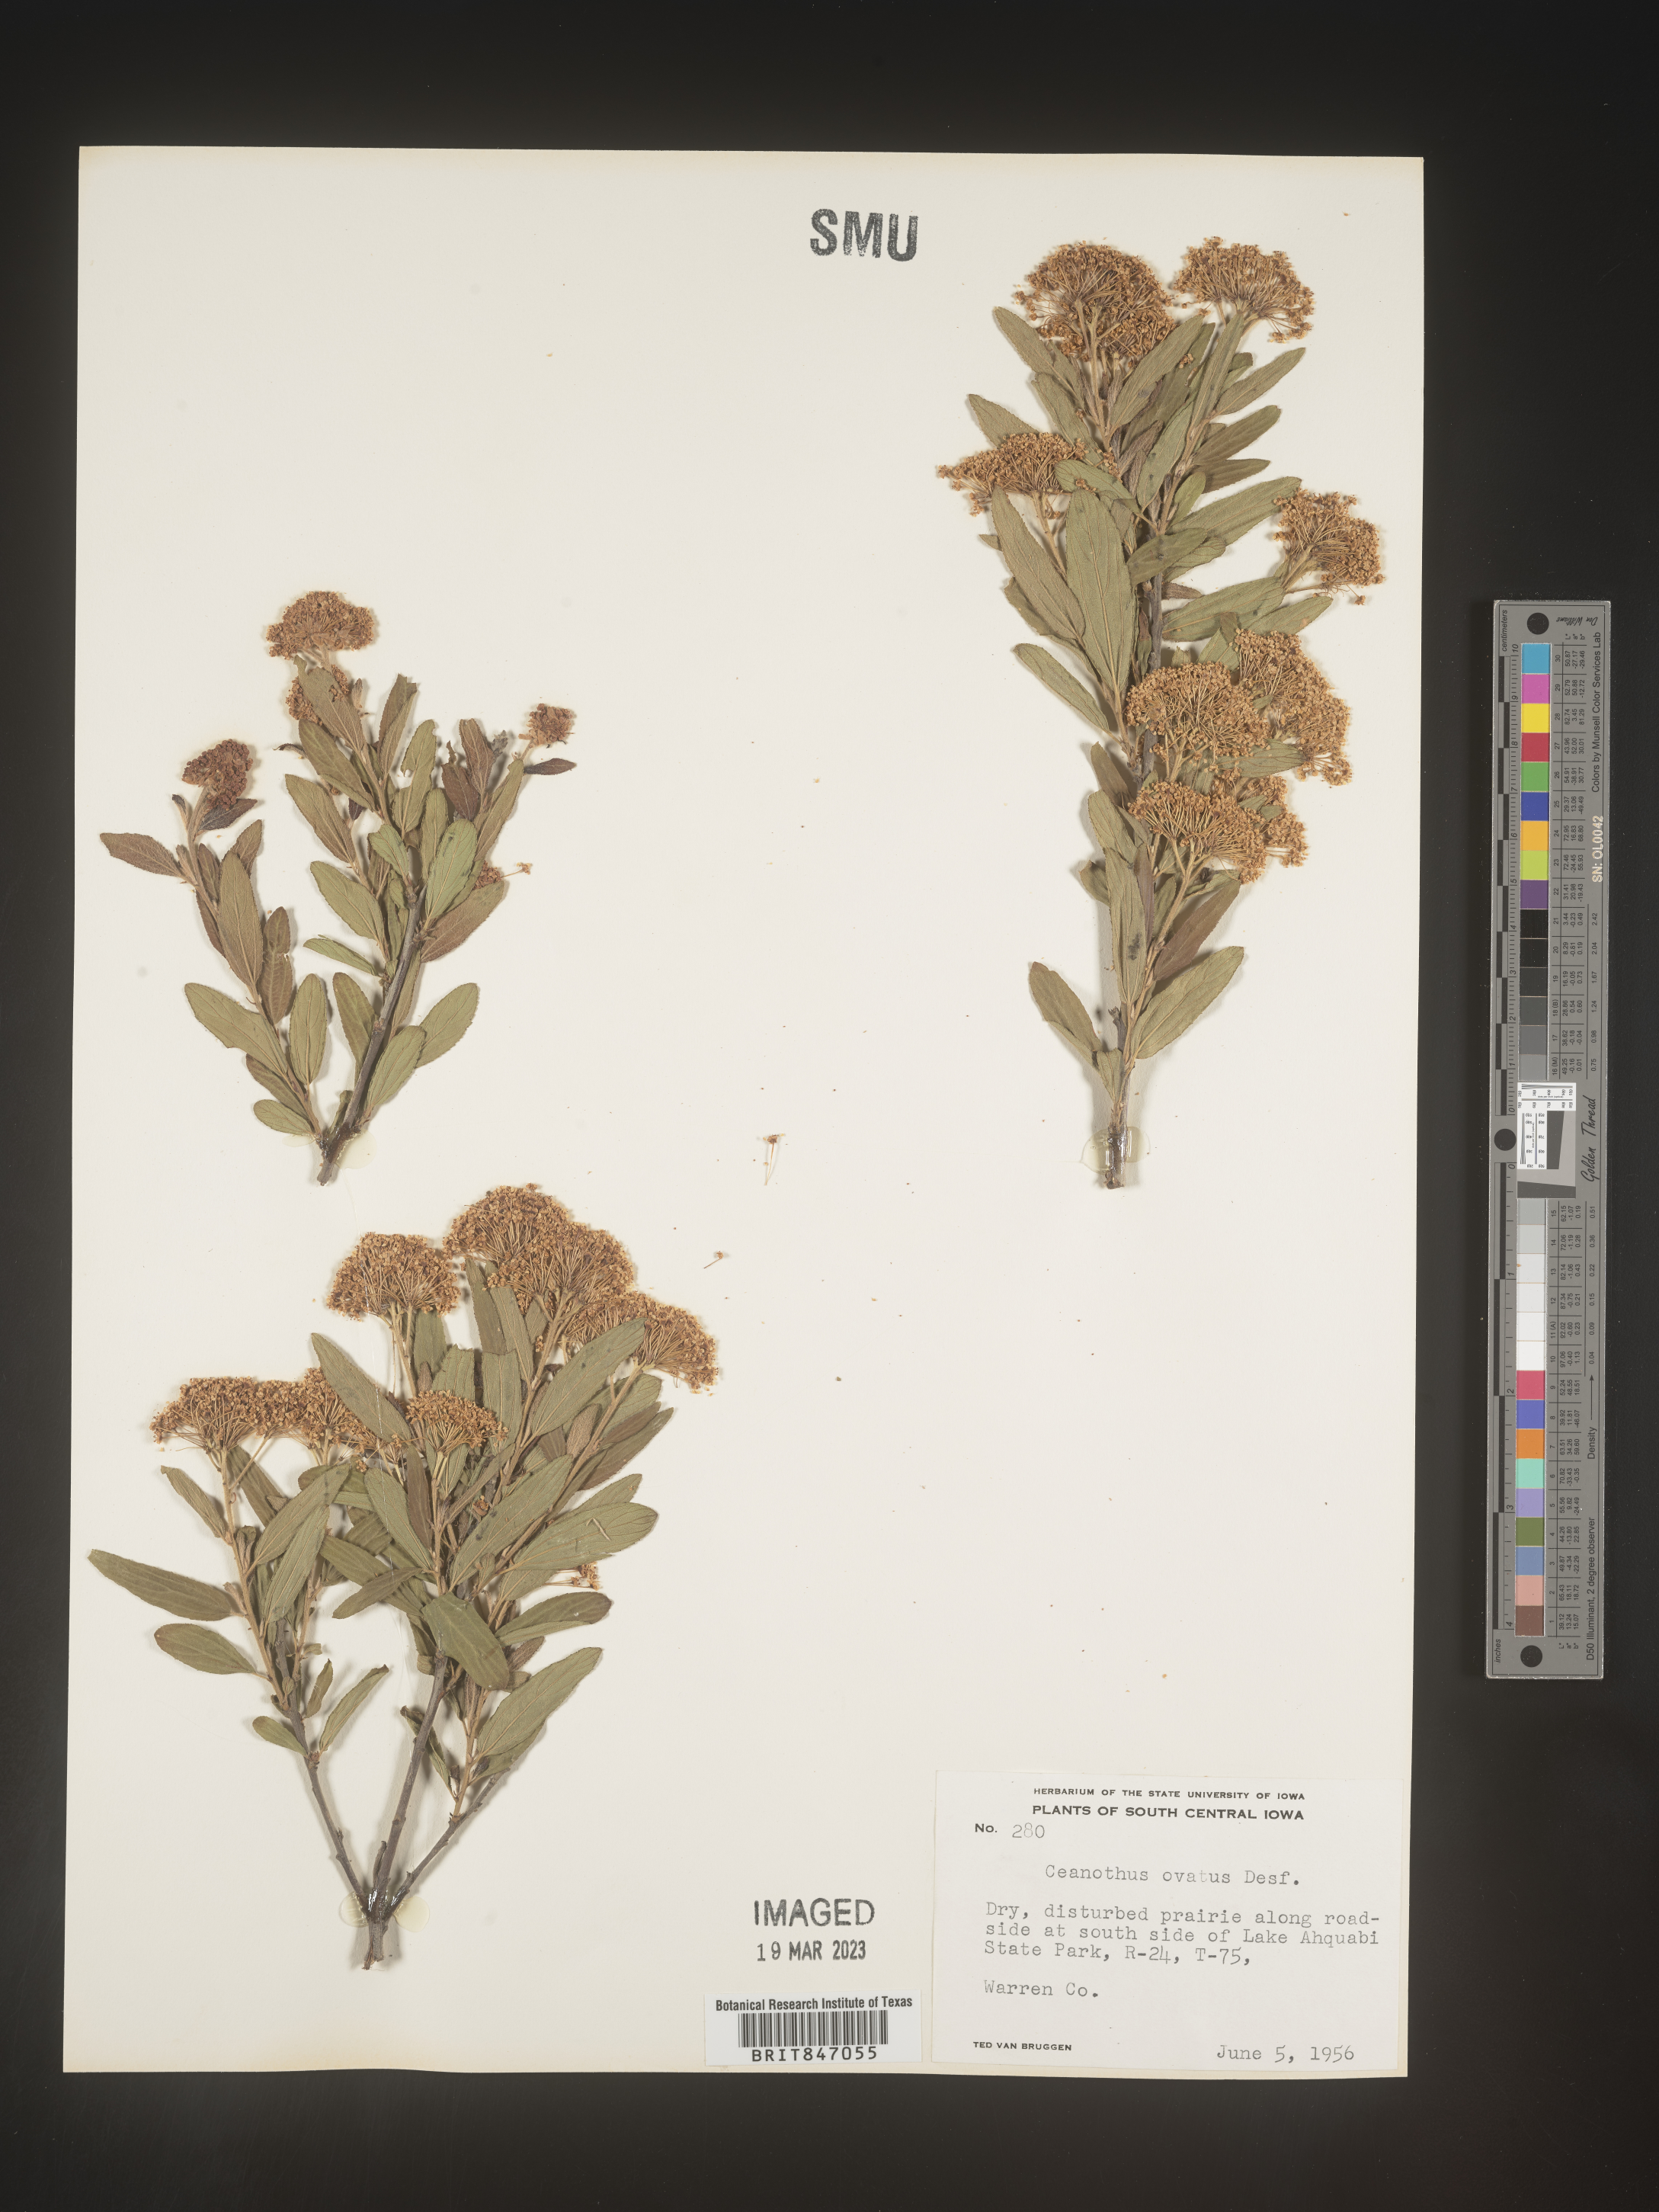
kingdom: Plantae
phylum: Tracheophyta
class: Magnoliopsida
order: Rosales
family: Rhamnaceae
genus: Ceanothus
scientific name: Ceanothus herbaceus
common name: Inland ceanothus
